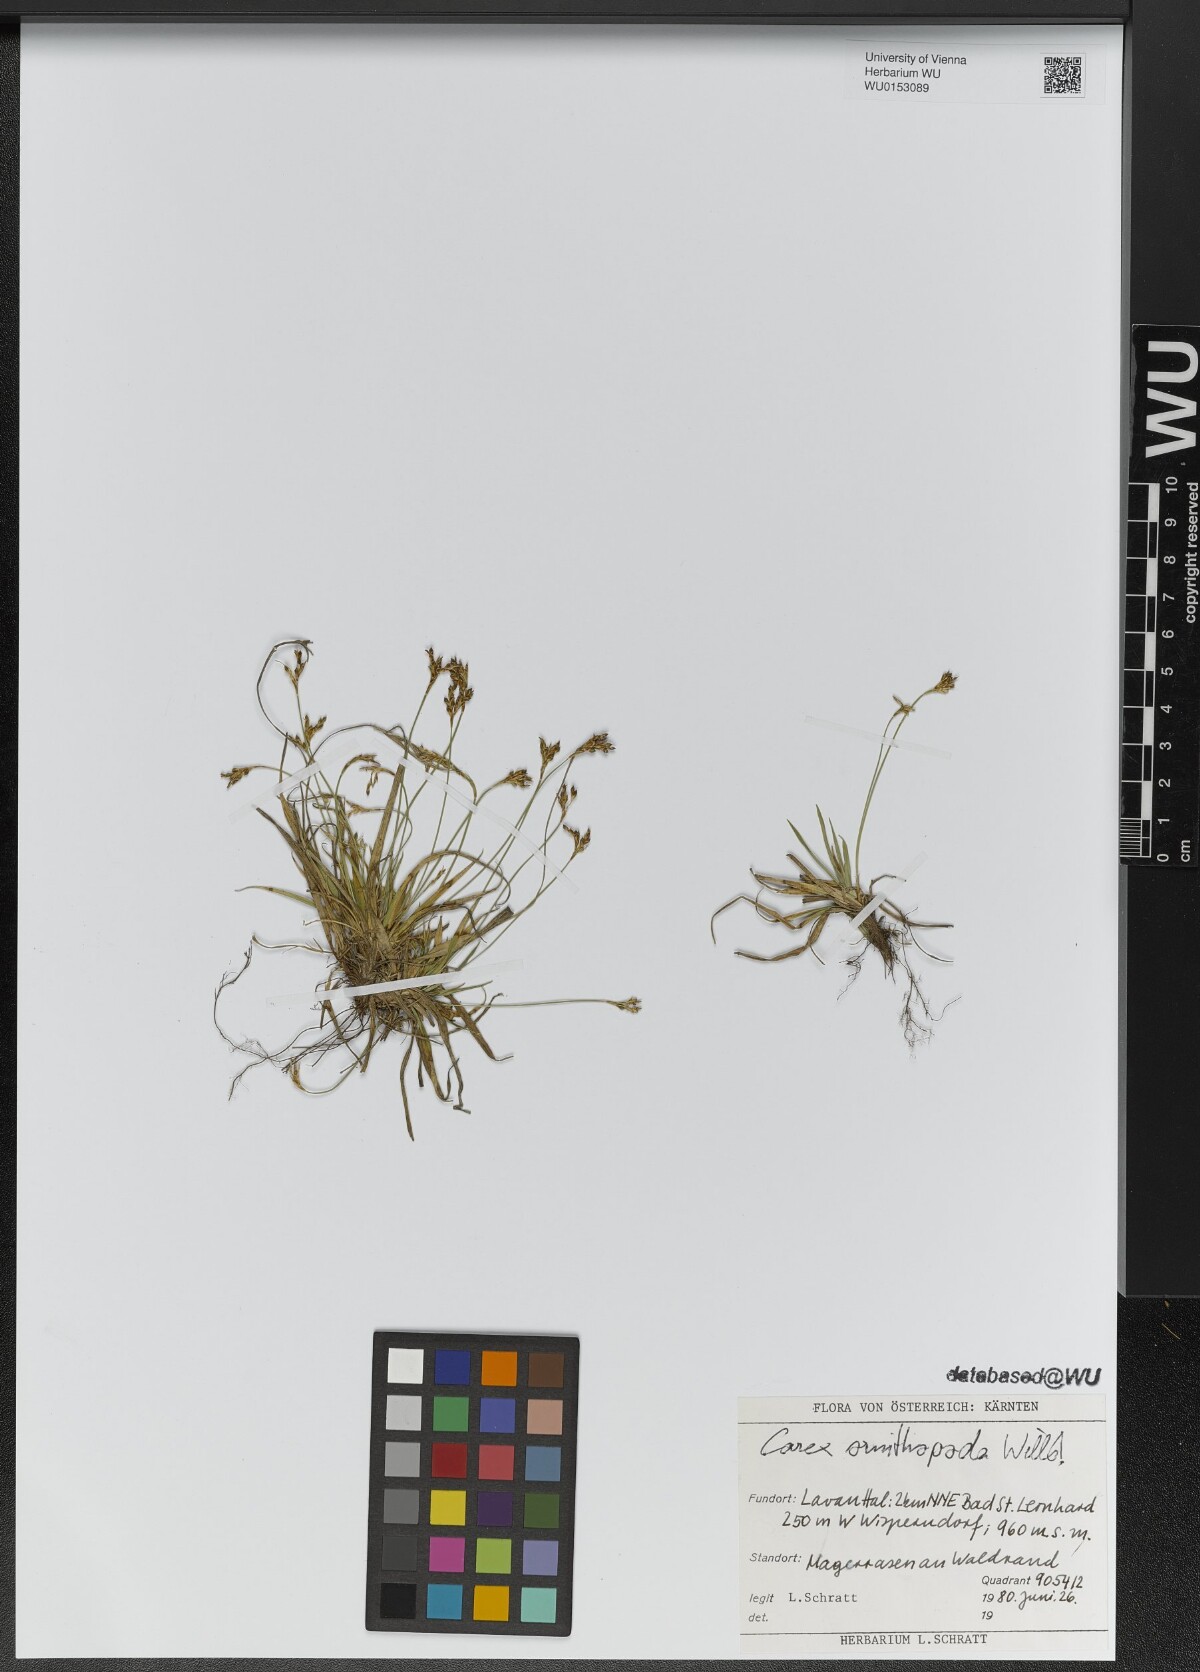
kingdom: Plantae
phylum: Tracheophyta
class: Liliopsida
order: Poales
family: Cyperaceae
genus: Carex
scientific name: Carex ornithopoda
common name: Bird's-foot sedge
